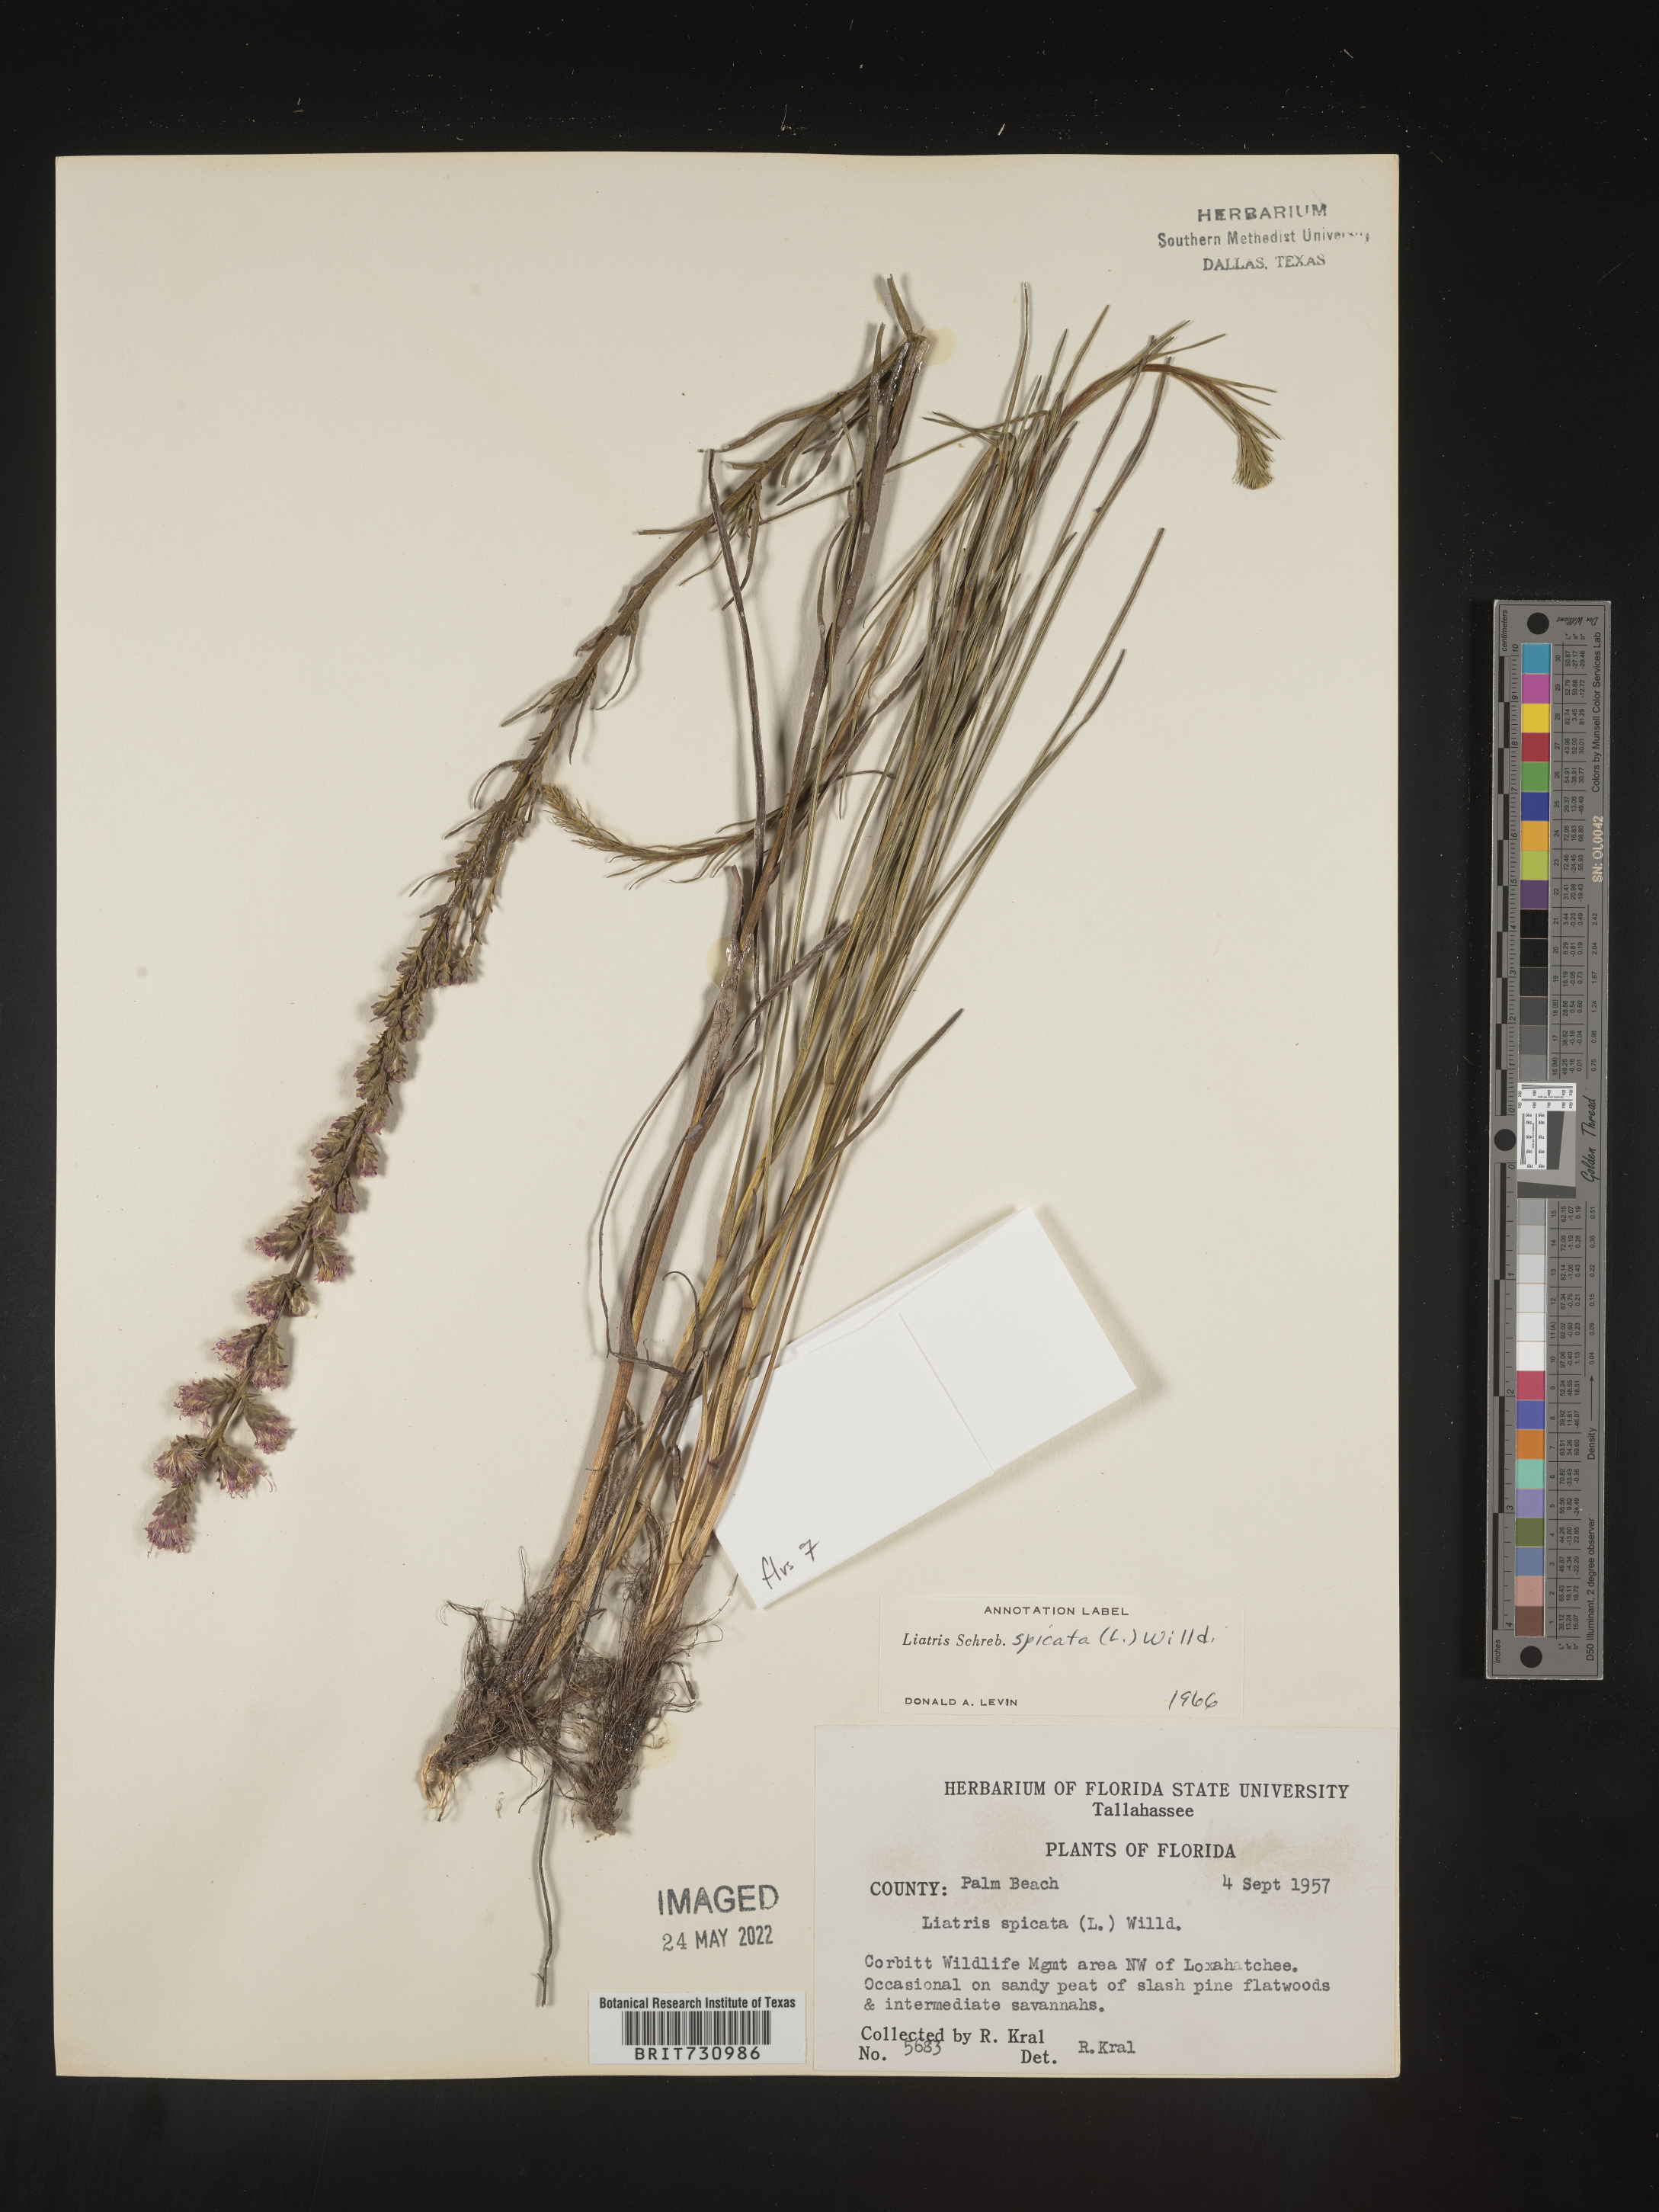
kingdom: Plantae
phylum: Tracheophyta
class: Magnoliopsida
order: Asterales
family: Asteraceae
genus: Liatris
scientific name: Liatris spicata
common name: Florist gayfeather
